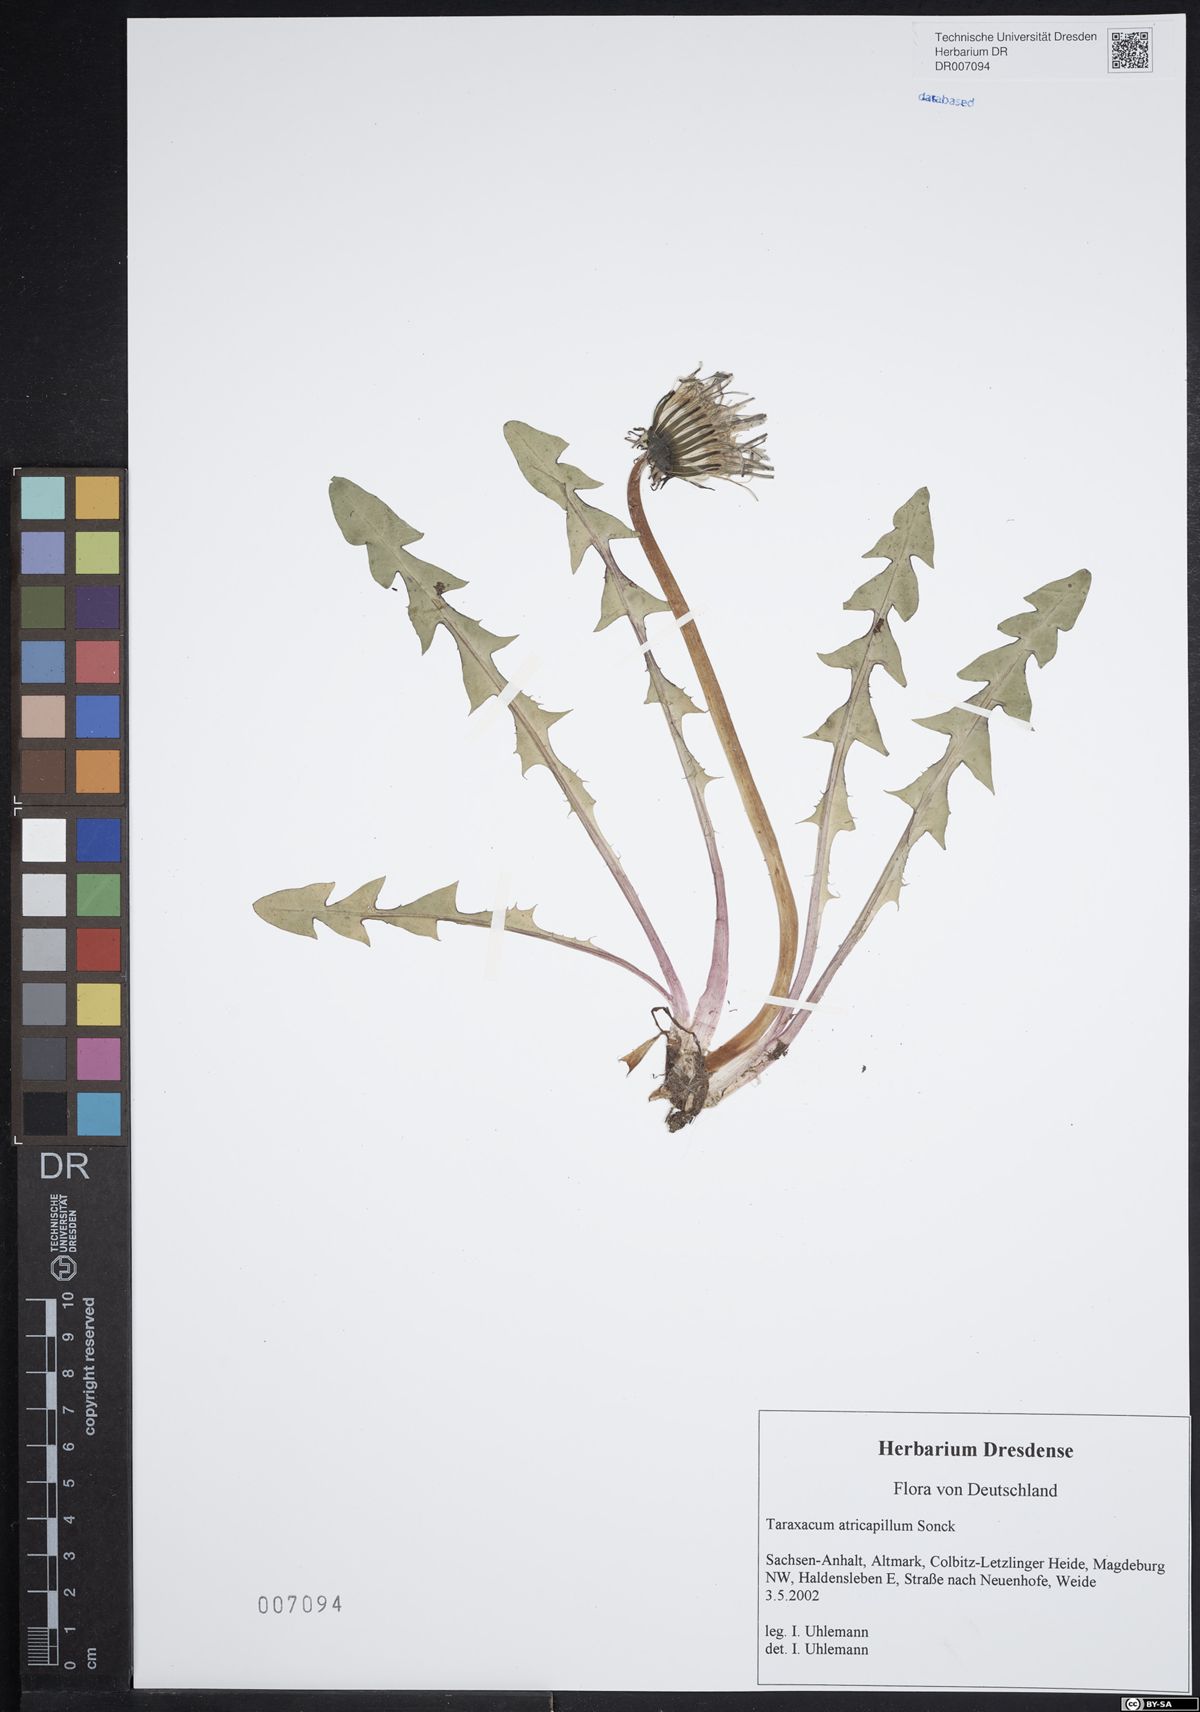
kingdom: Plantae
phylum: Tracheophyta
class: Magnoliopsida
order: Asterales
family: Asteraceae
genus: Taraxacum
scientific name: Taraxacum atricapillum
